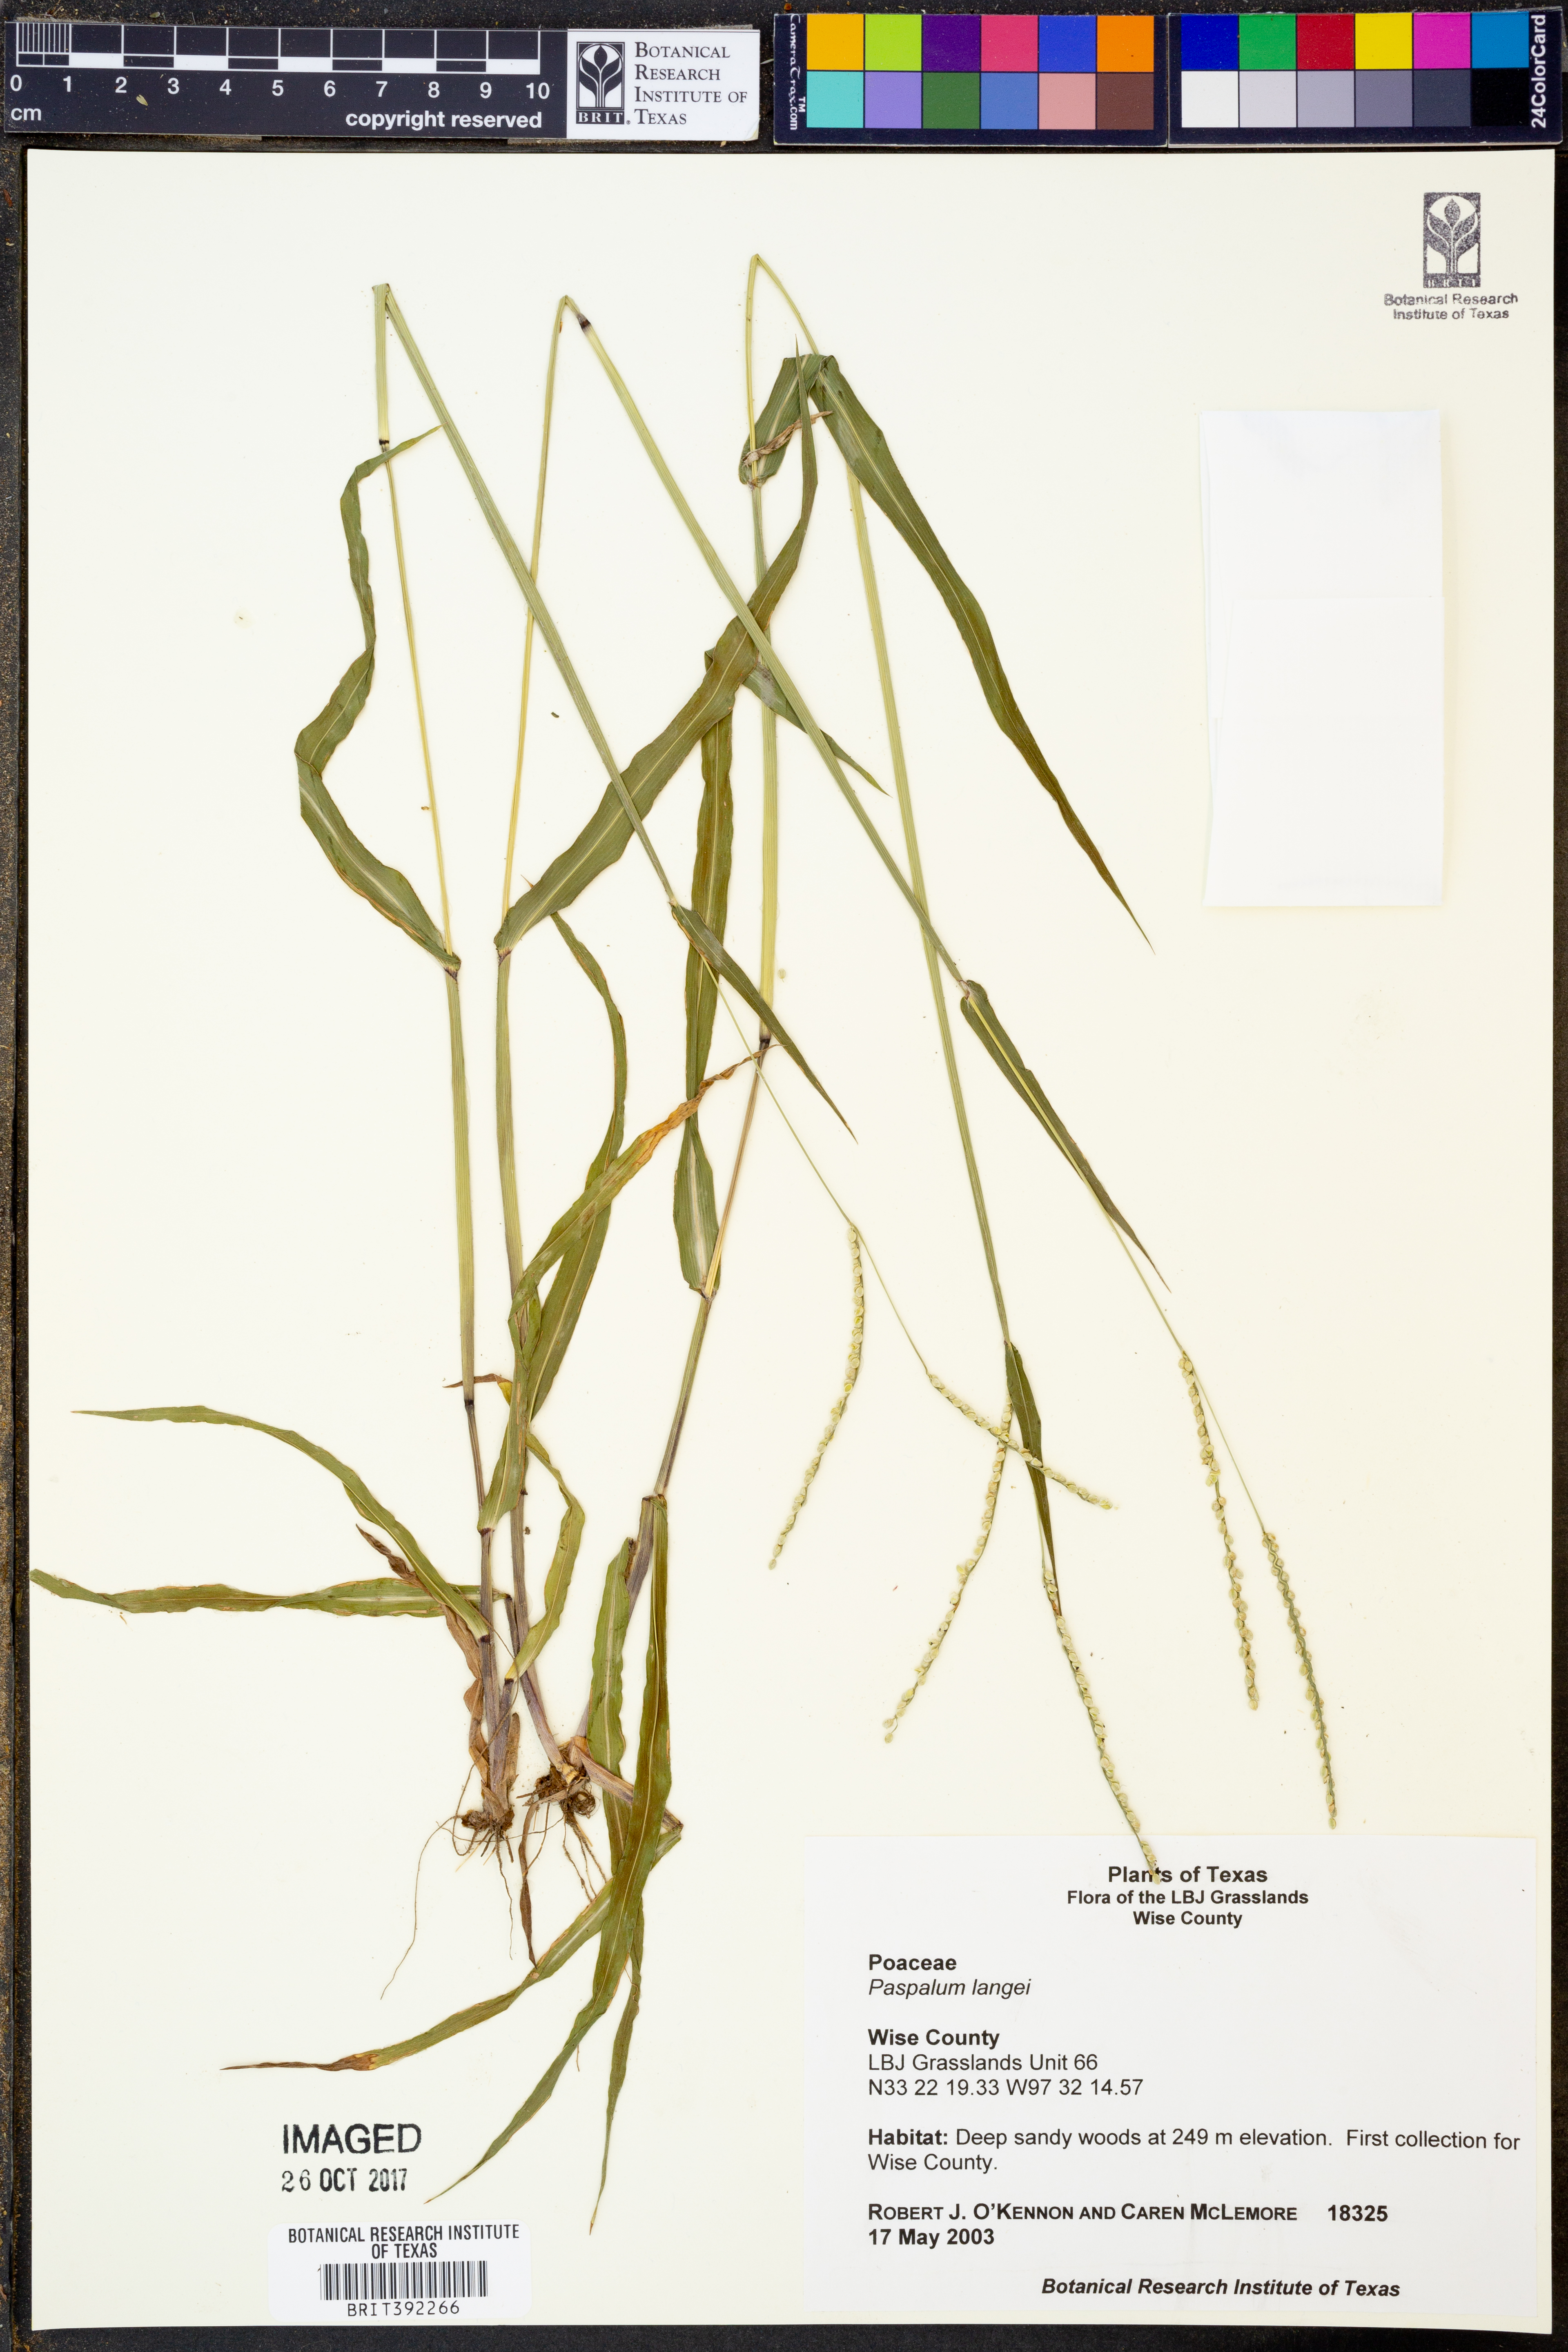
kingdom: Plantae
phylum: Tracheophyta
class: Liliopsida
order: Poales
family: Poaceae
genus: Paspalum
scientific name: Paspalum langei
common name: Rusty-seed paspalum
